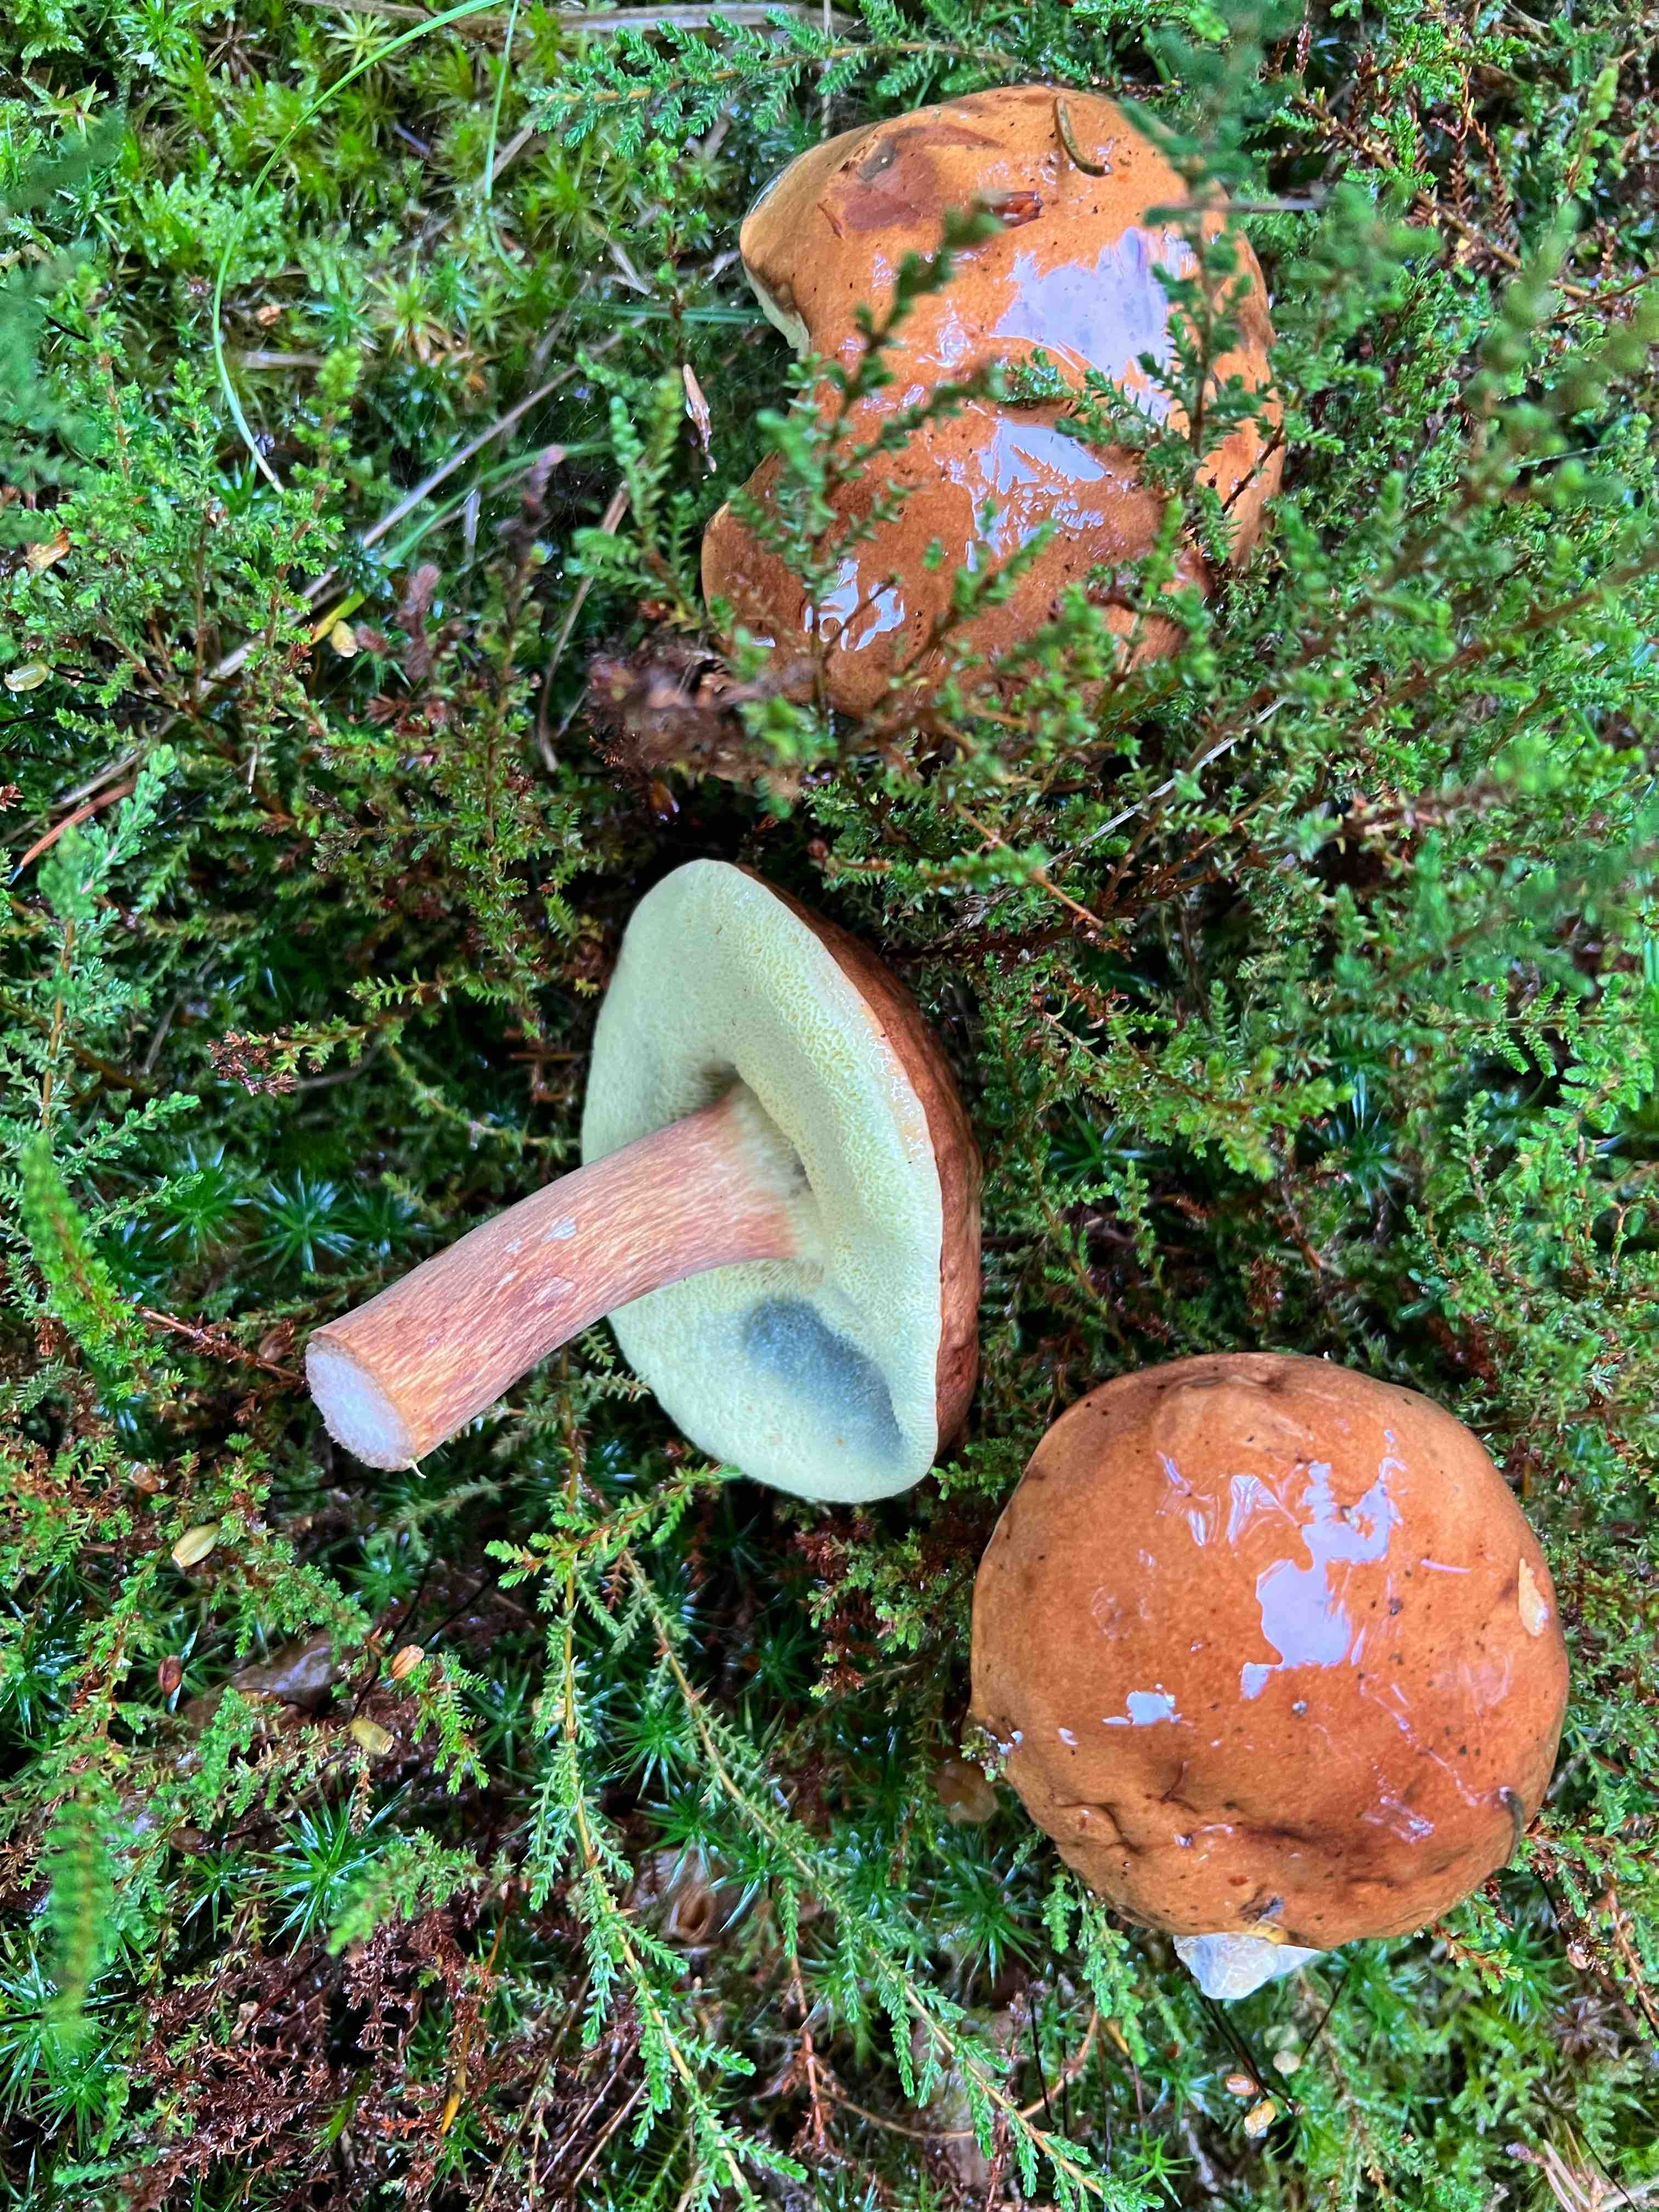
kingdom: Fungi
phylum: Basidiomycota
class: Agaricomycetes
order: Boletales
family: Boletaceae
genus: Imleria
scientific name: Imleria badia
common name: brunstokket rørhat
